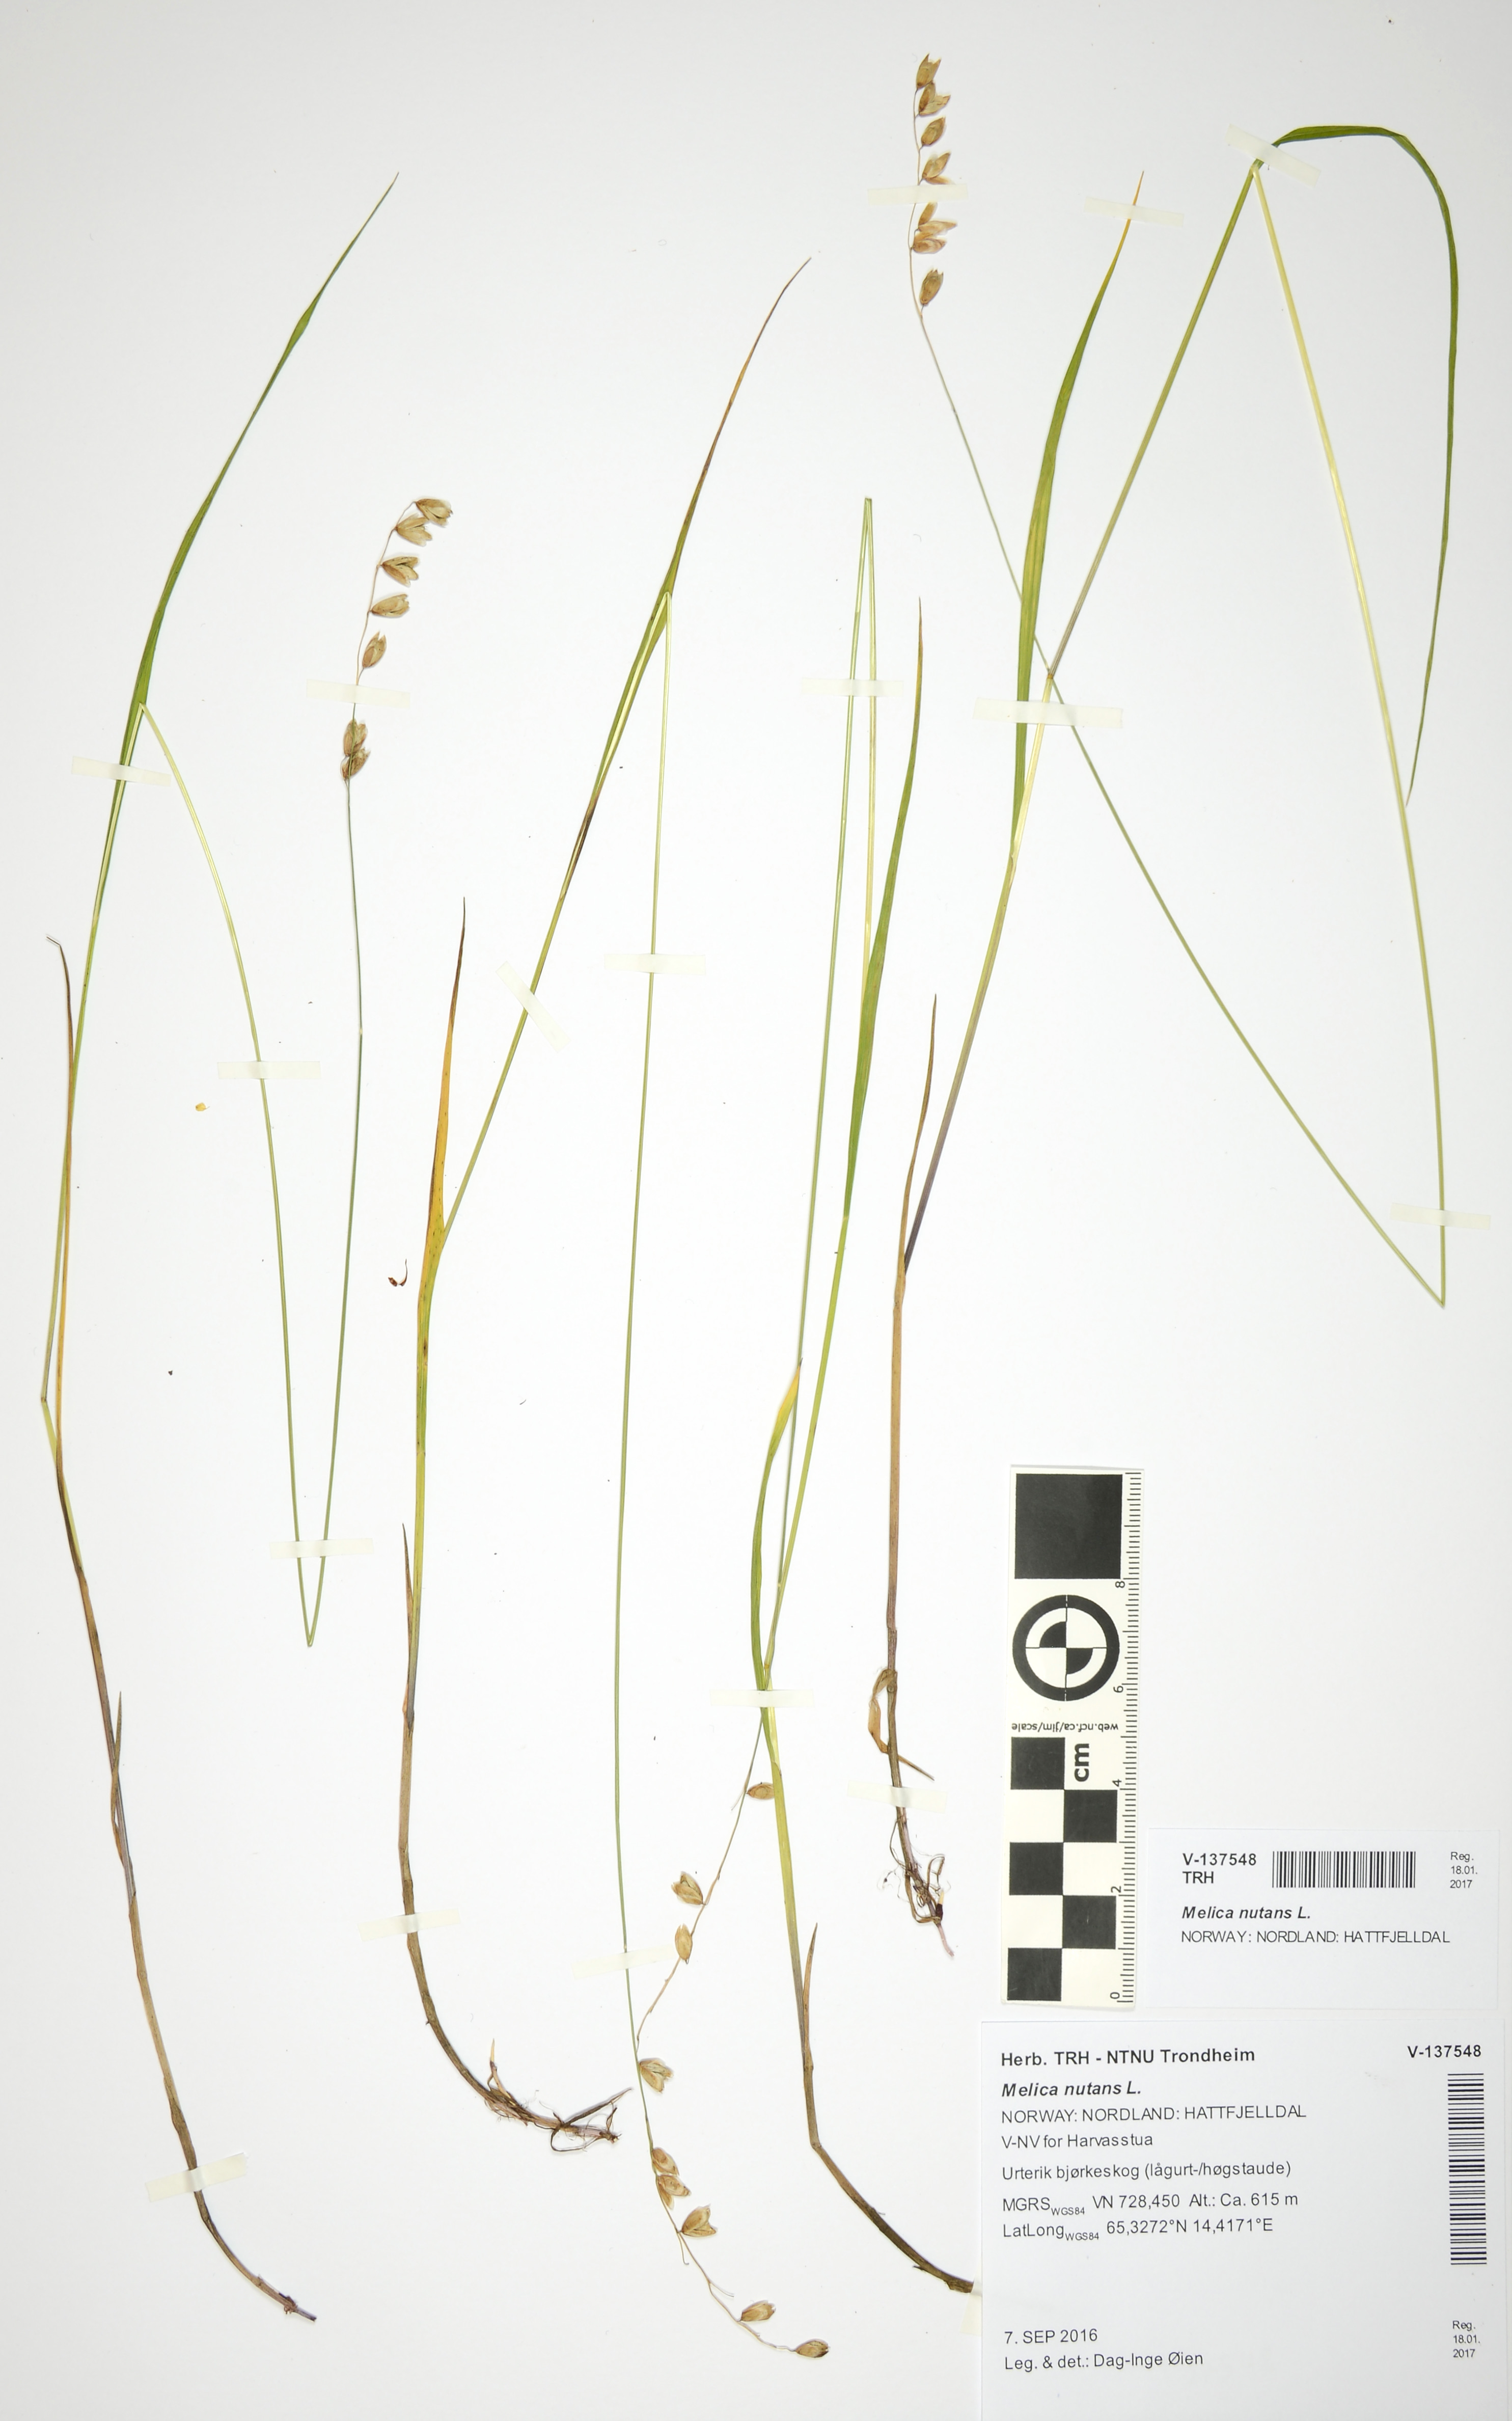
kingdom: Plantae
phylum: Tracheophyta
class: Liliopsida
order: Poales
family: Poaceae
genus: Melica
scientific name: Melica nutans
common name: Mountain melick
